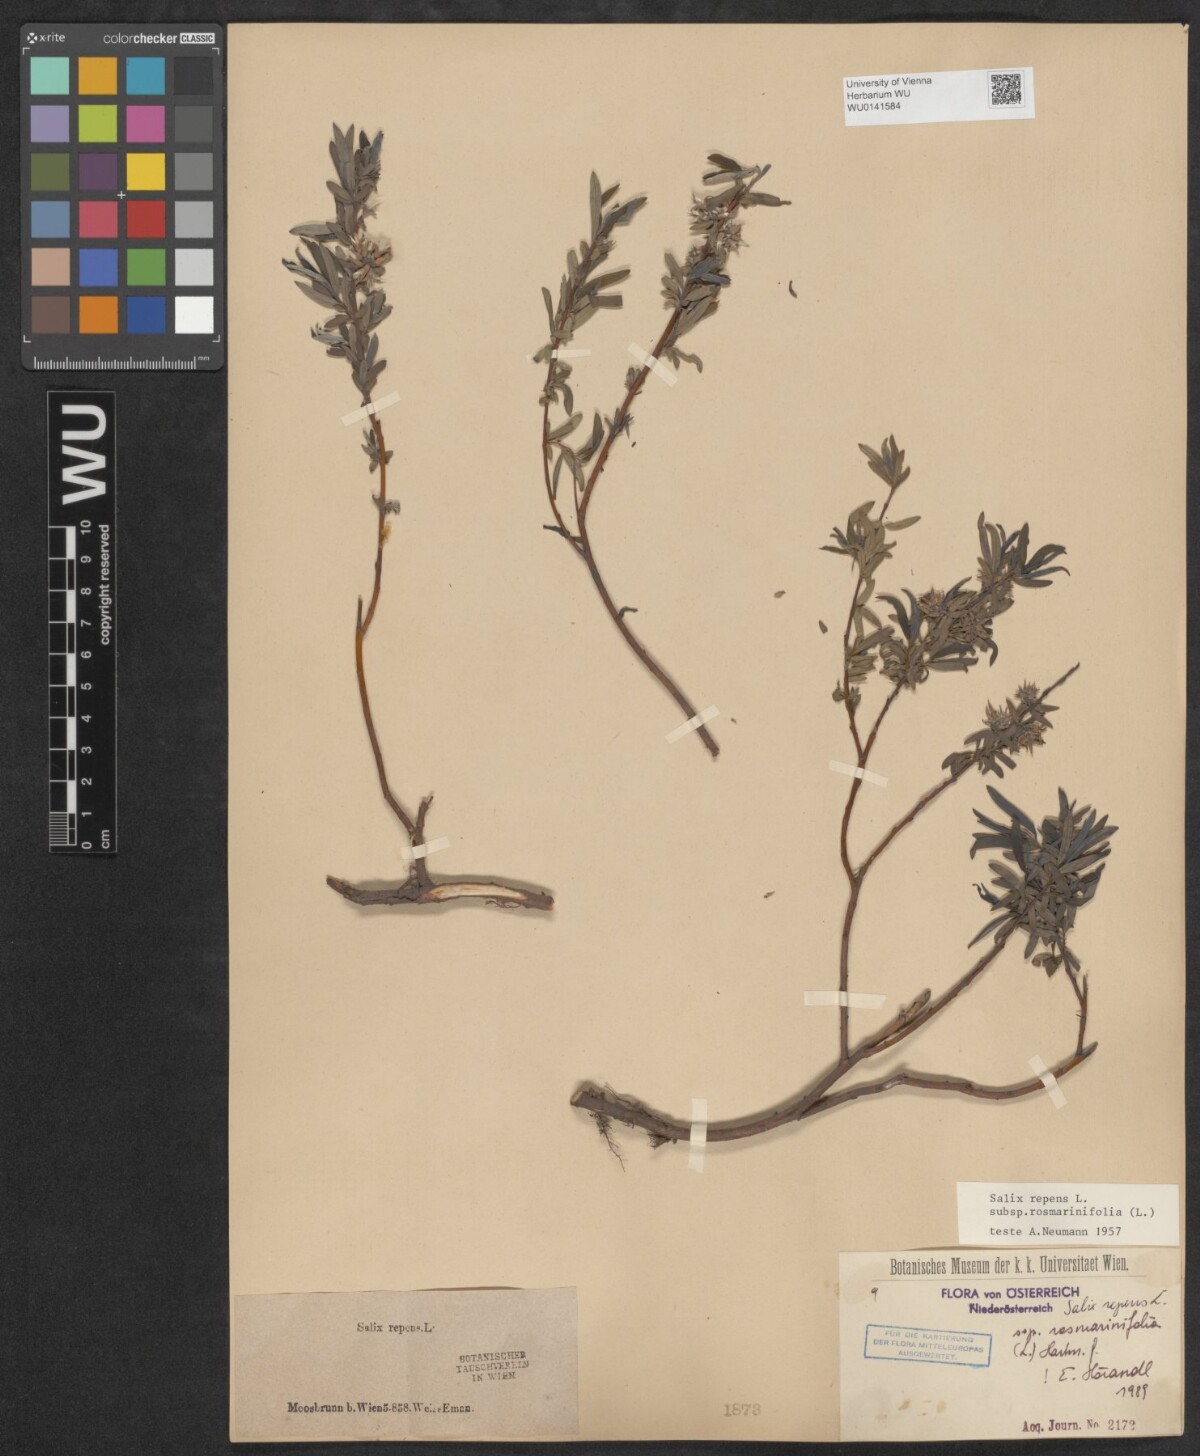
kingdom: Plantae
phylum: Tracheophyta
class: Magnoliopsida
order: Malpighiales
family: Salicaceae
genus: Salix
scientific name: Salix repens
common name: Creeping willow
